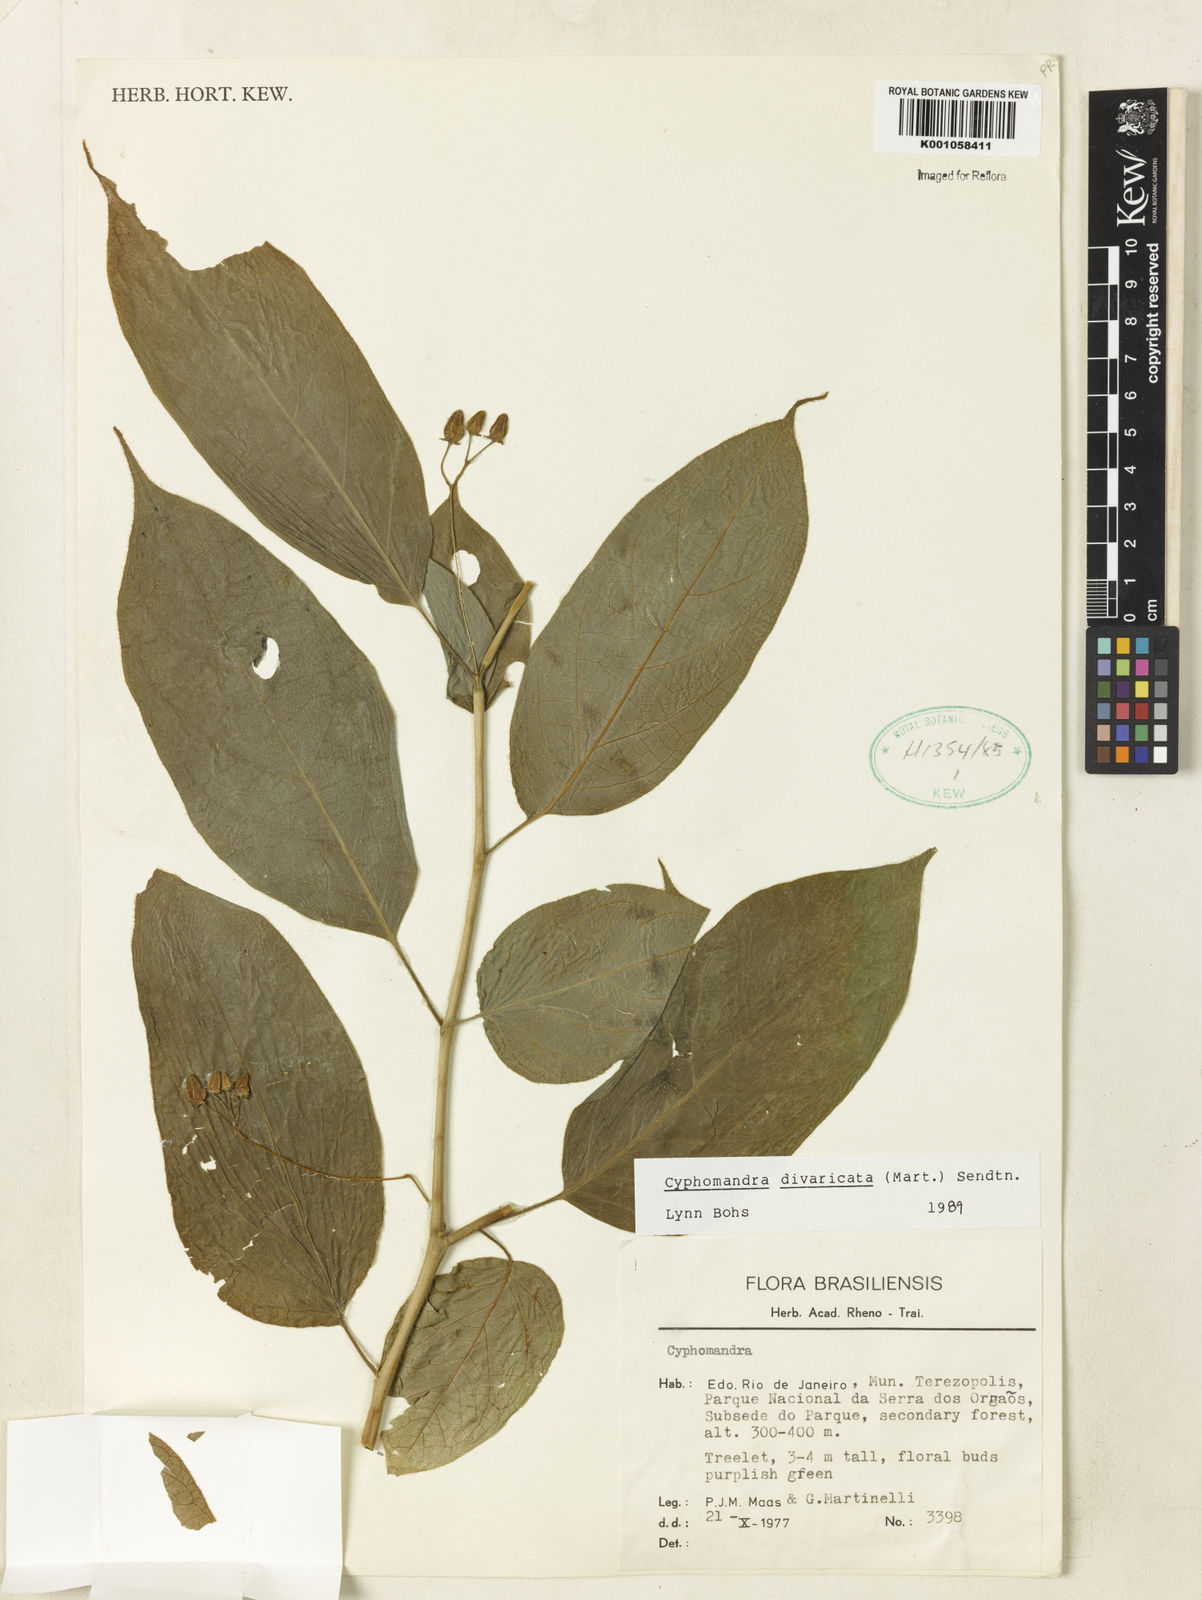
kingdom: Plantae
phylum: Tracheophyta
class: Magnoliopsida
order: Solanales
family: Solanaceae
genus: Solanum
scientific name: Solanum melissarum
